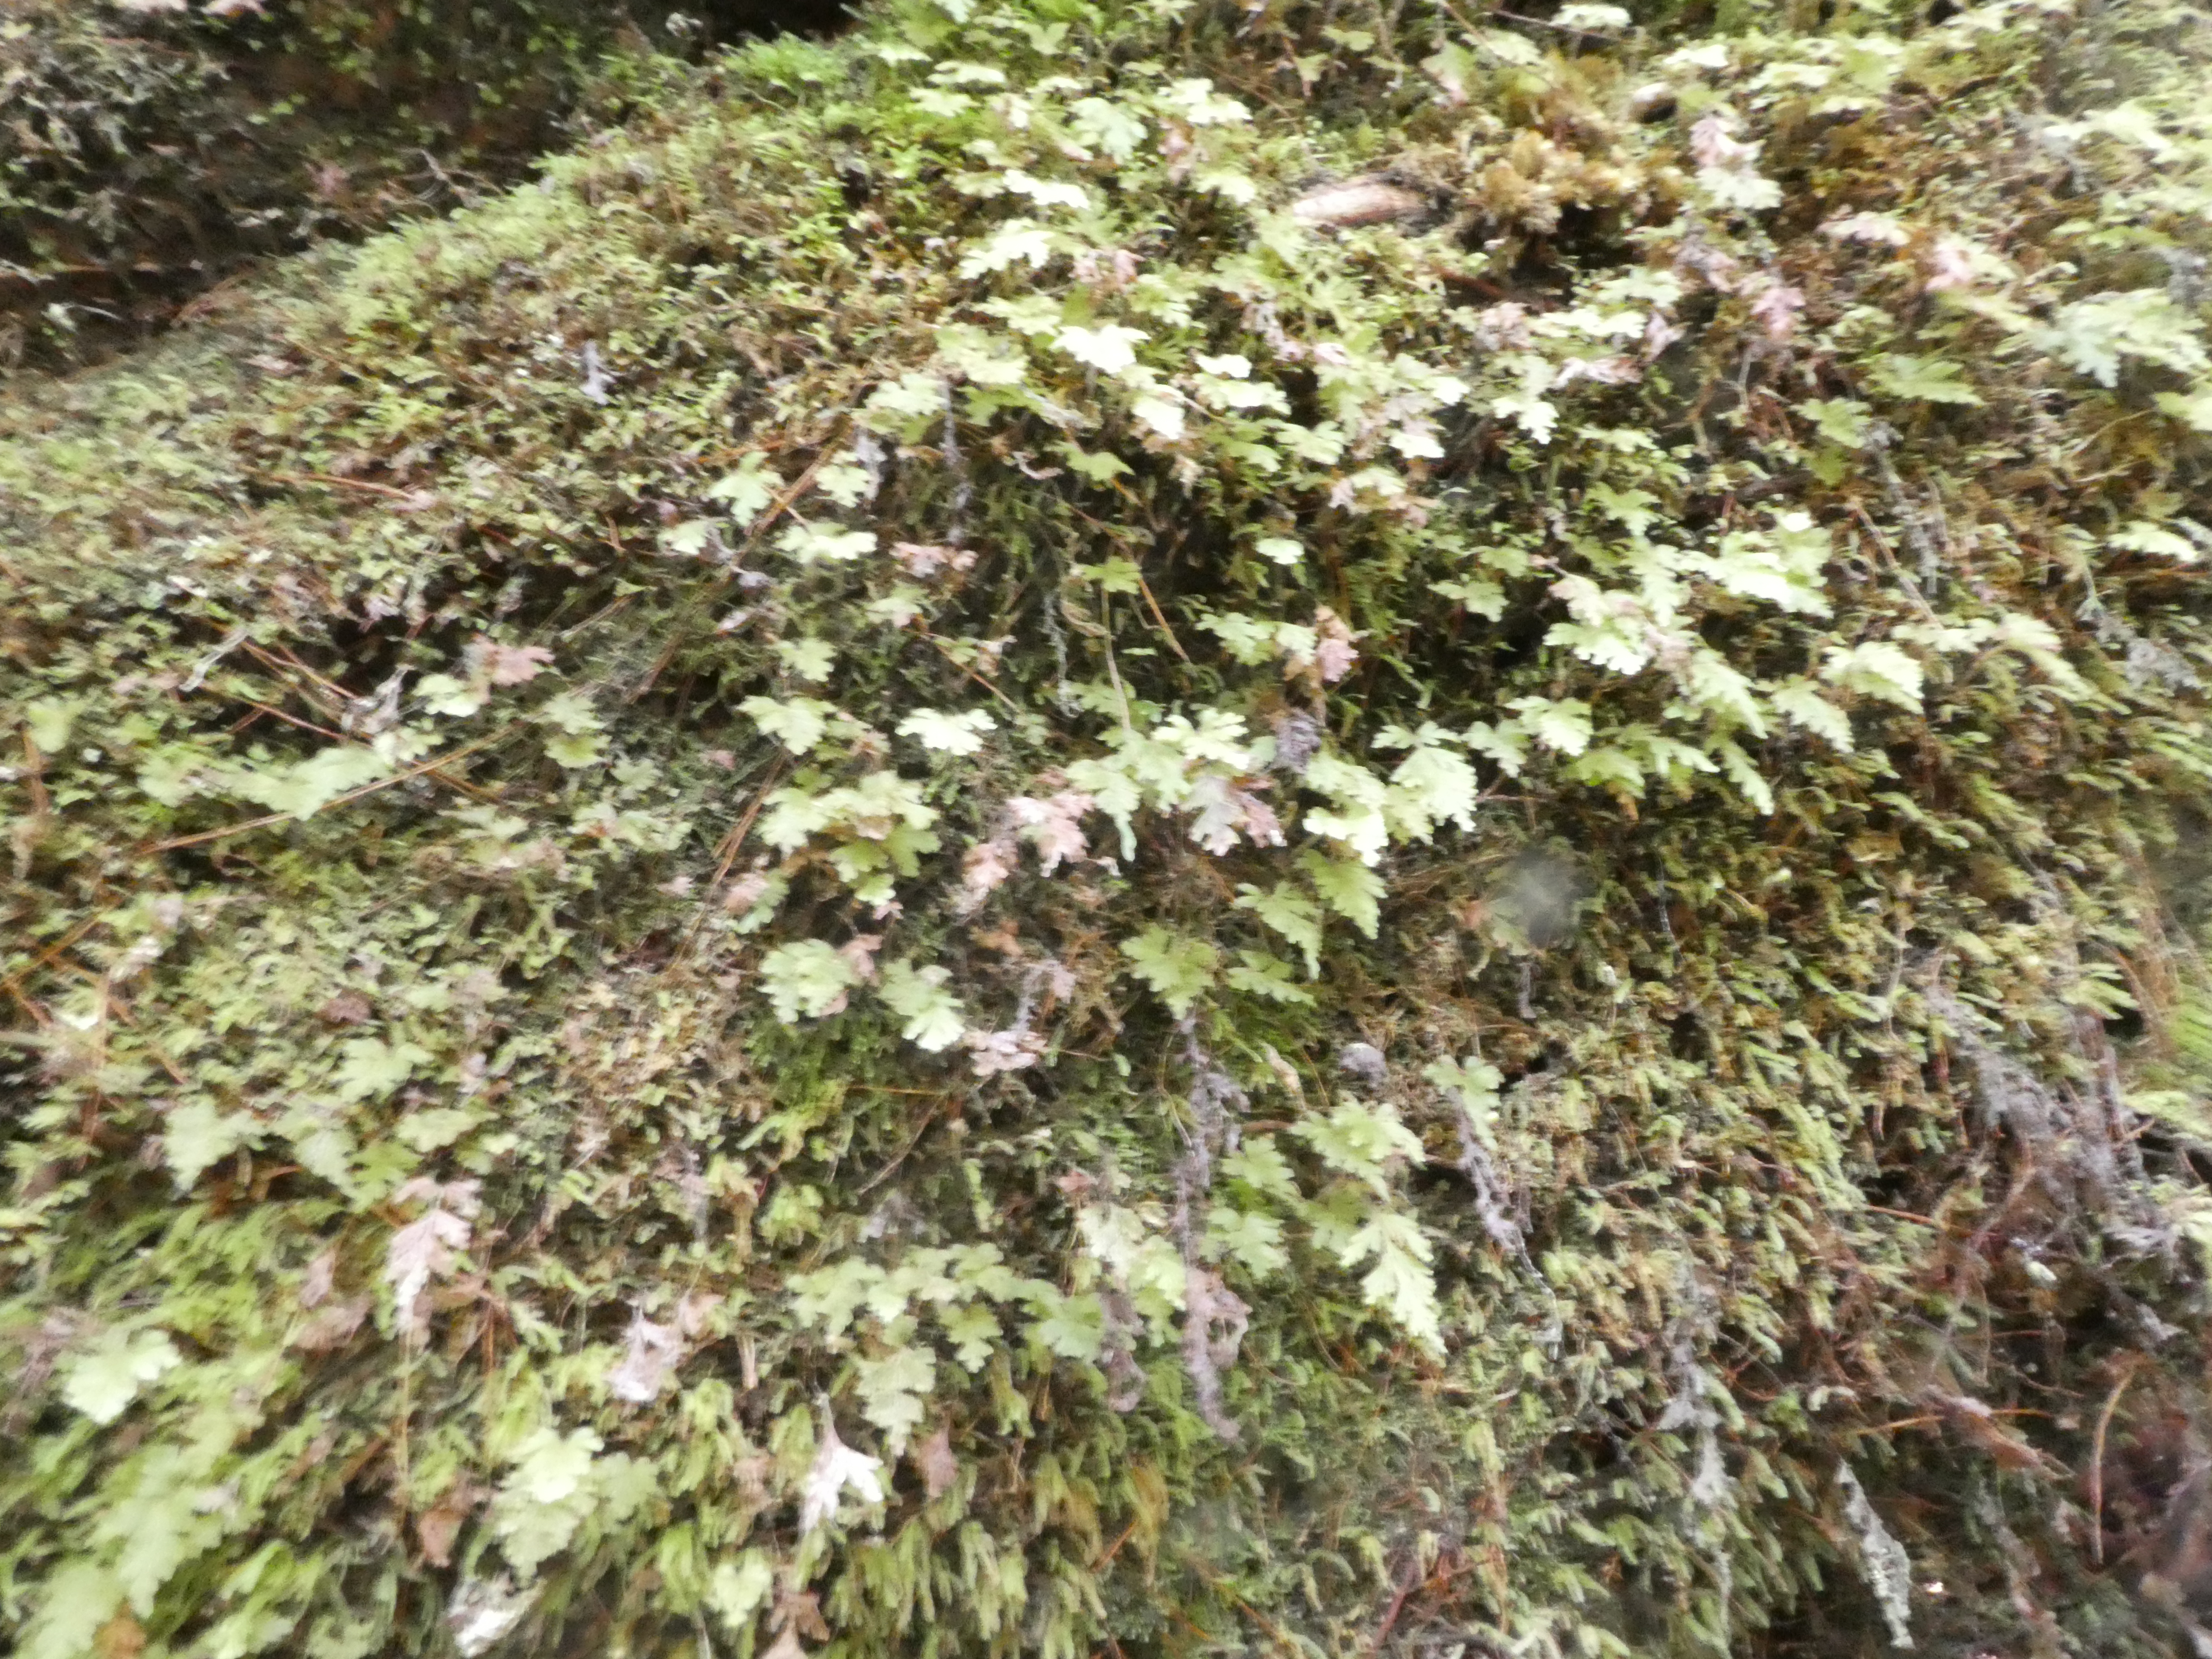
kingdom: Plantae
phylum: Tracheophyta
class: Polypodiopsida
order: Hymenophyllales
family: Hymenophyllaceae
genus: Hymenophyllum
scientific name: Hymenophyllum rufescens
